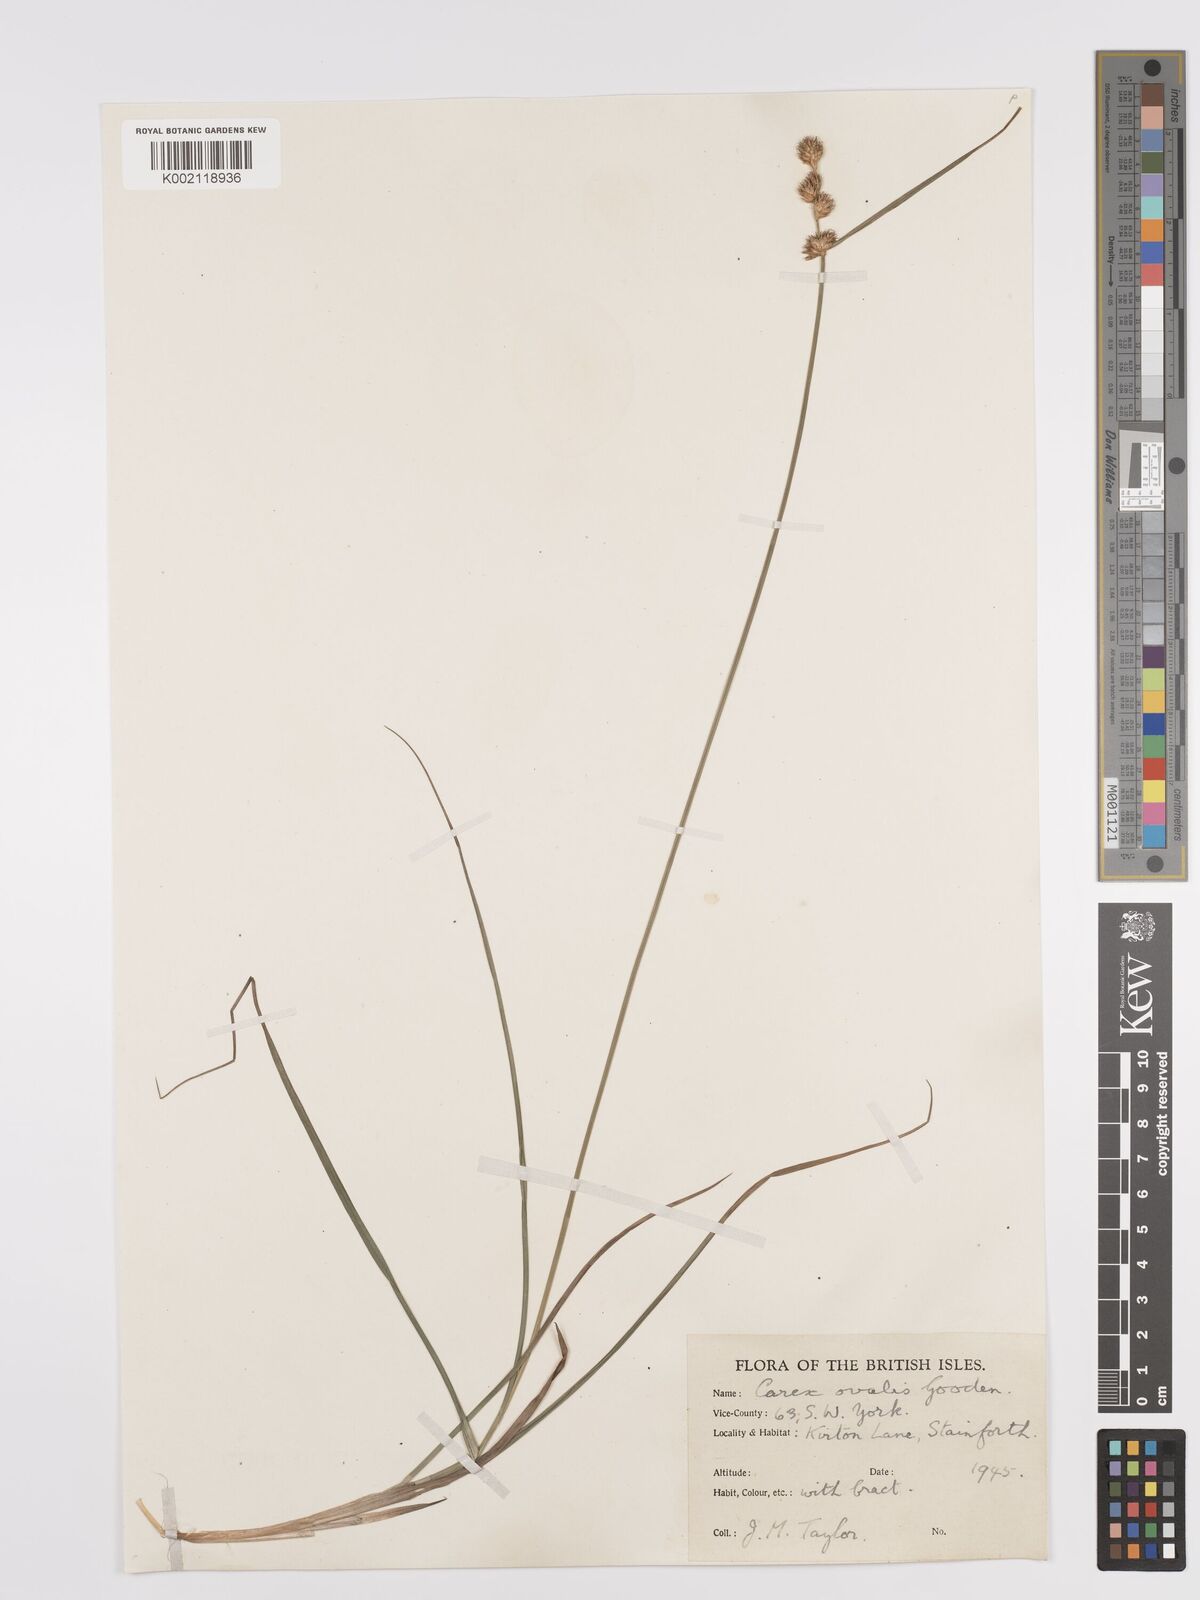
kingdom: Plantae
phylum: Tracheophyta
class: Liliopsida
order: Poales
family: Cyperaceae
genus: Carex
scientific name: Carex leporina
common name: Oval sedge
